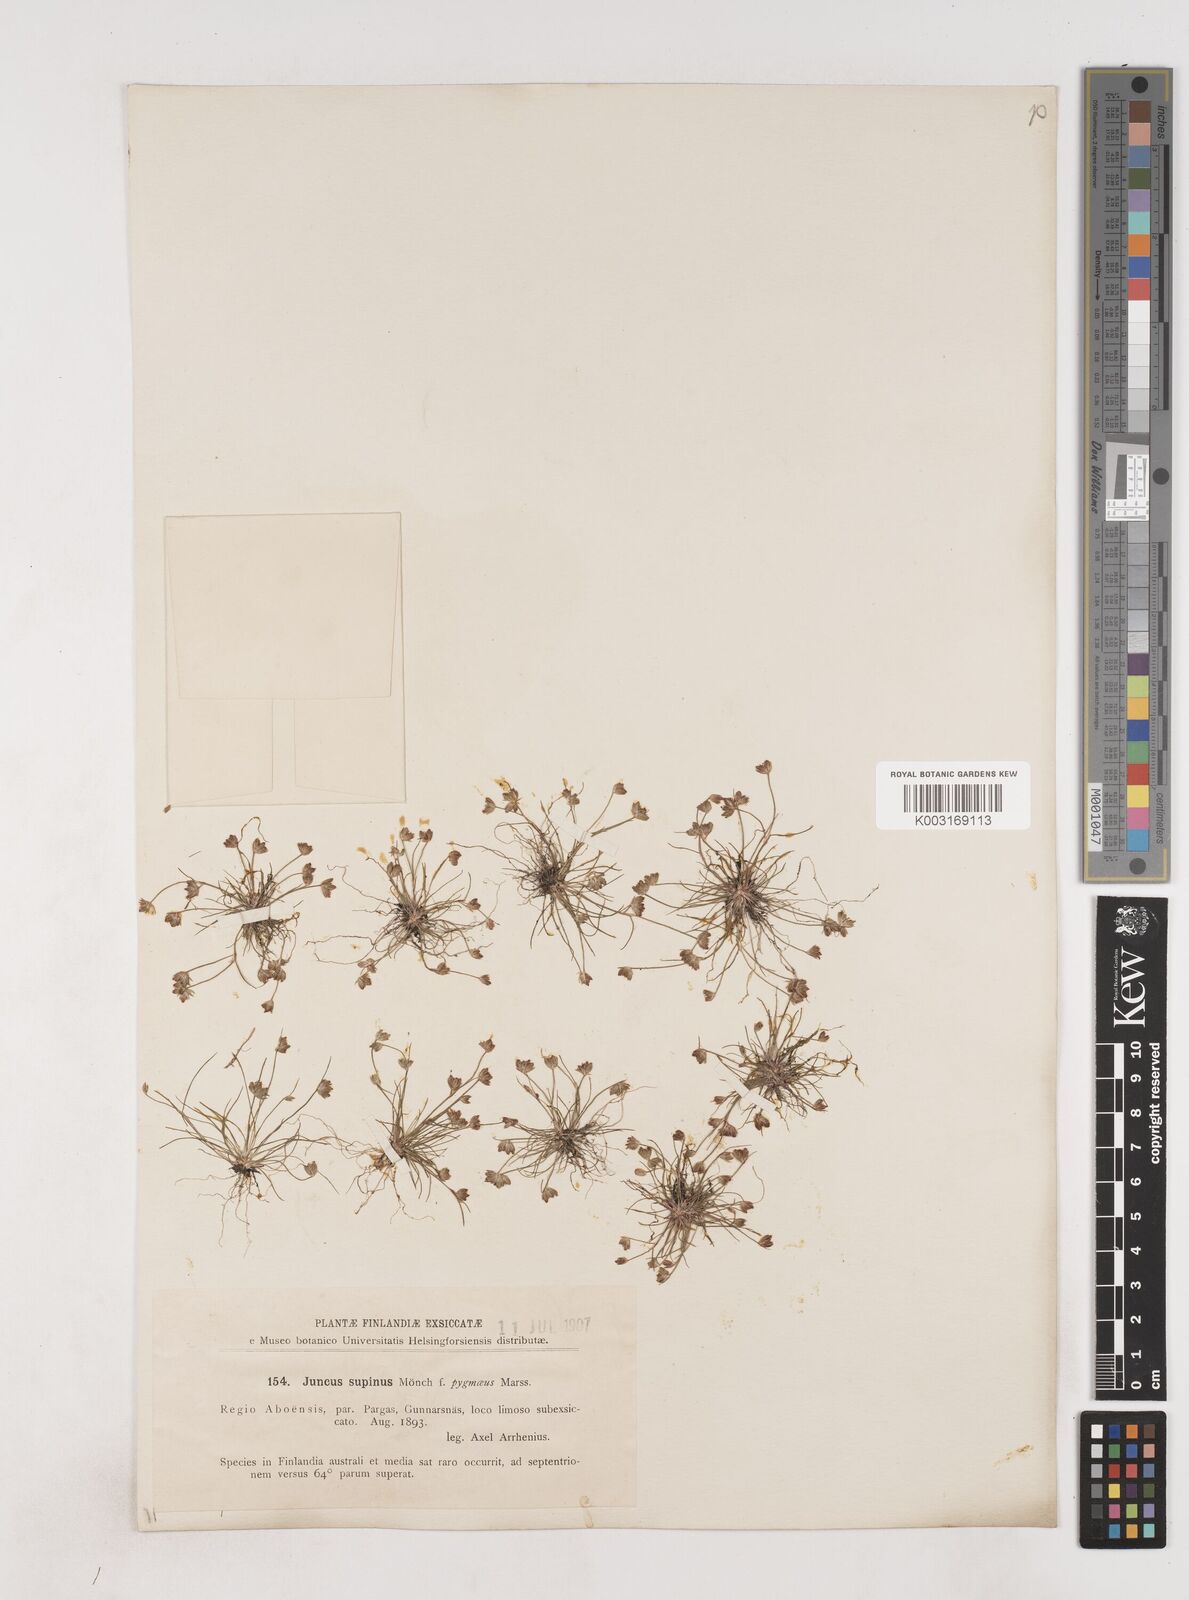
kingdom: Plantae
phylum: Tracheophyta
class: Liliopsida
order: Poales
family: Juncaceae
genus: Juncus
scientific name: Juncus bulbosus
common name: Bulbous rush
